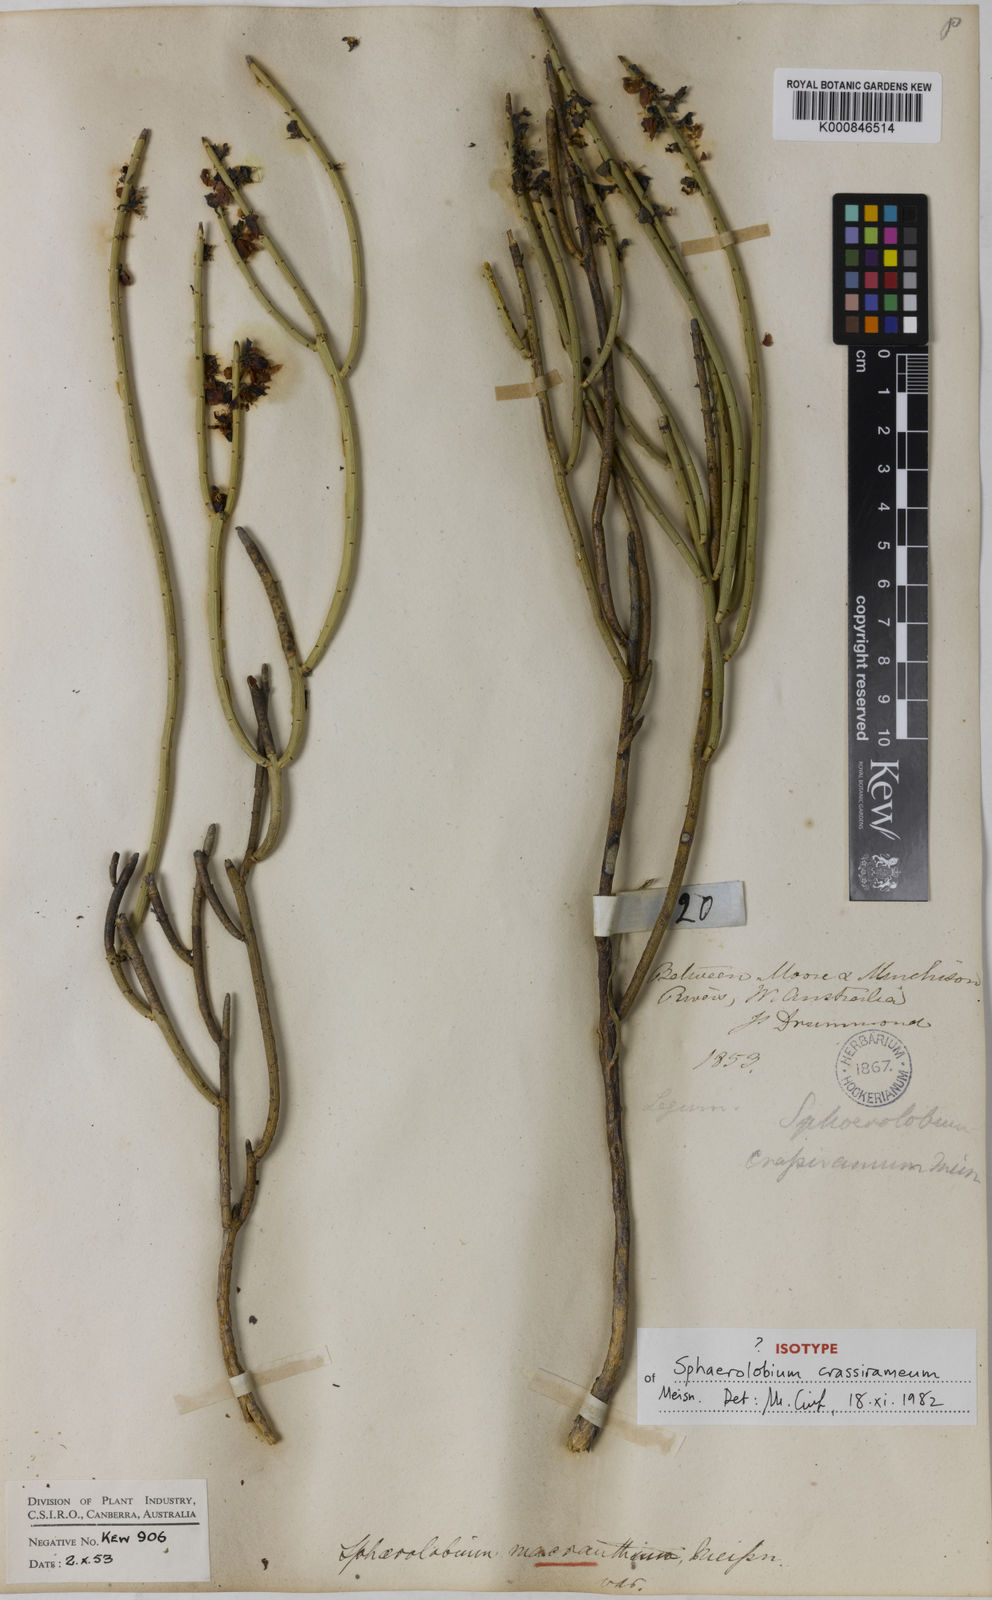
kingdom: Plantae
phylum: Tracheophyta
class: Magnoliopsida
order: Fabales
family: Fabaceae
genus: Sphaerolobium
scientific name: Sphaerolobium drummondii
